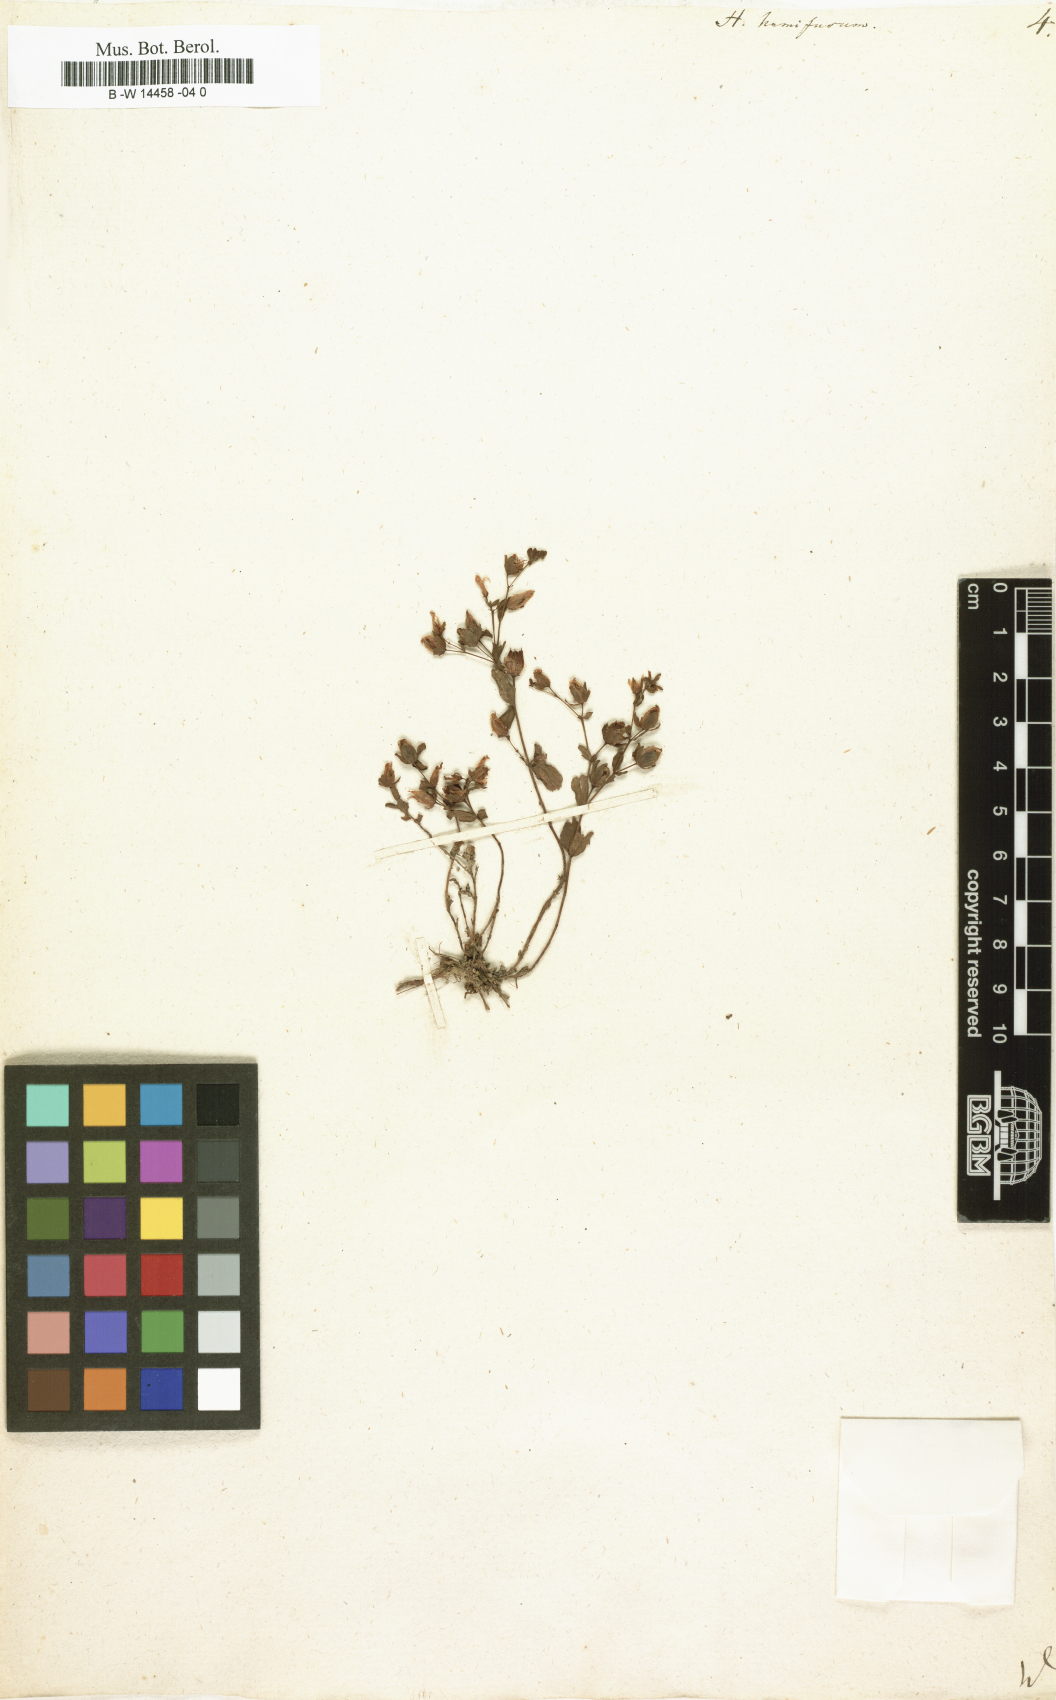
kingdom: Plantae
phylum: Tracheophyta
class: Magnoliopsida
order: Malpighiales
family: Hypericaceae
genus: Hypericum
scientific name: Hypericum humifusum
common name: Trailing st. john's-wort
